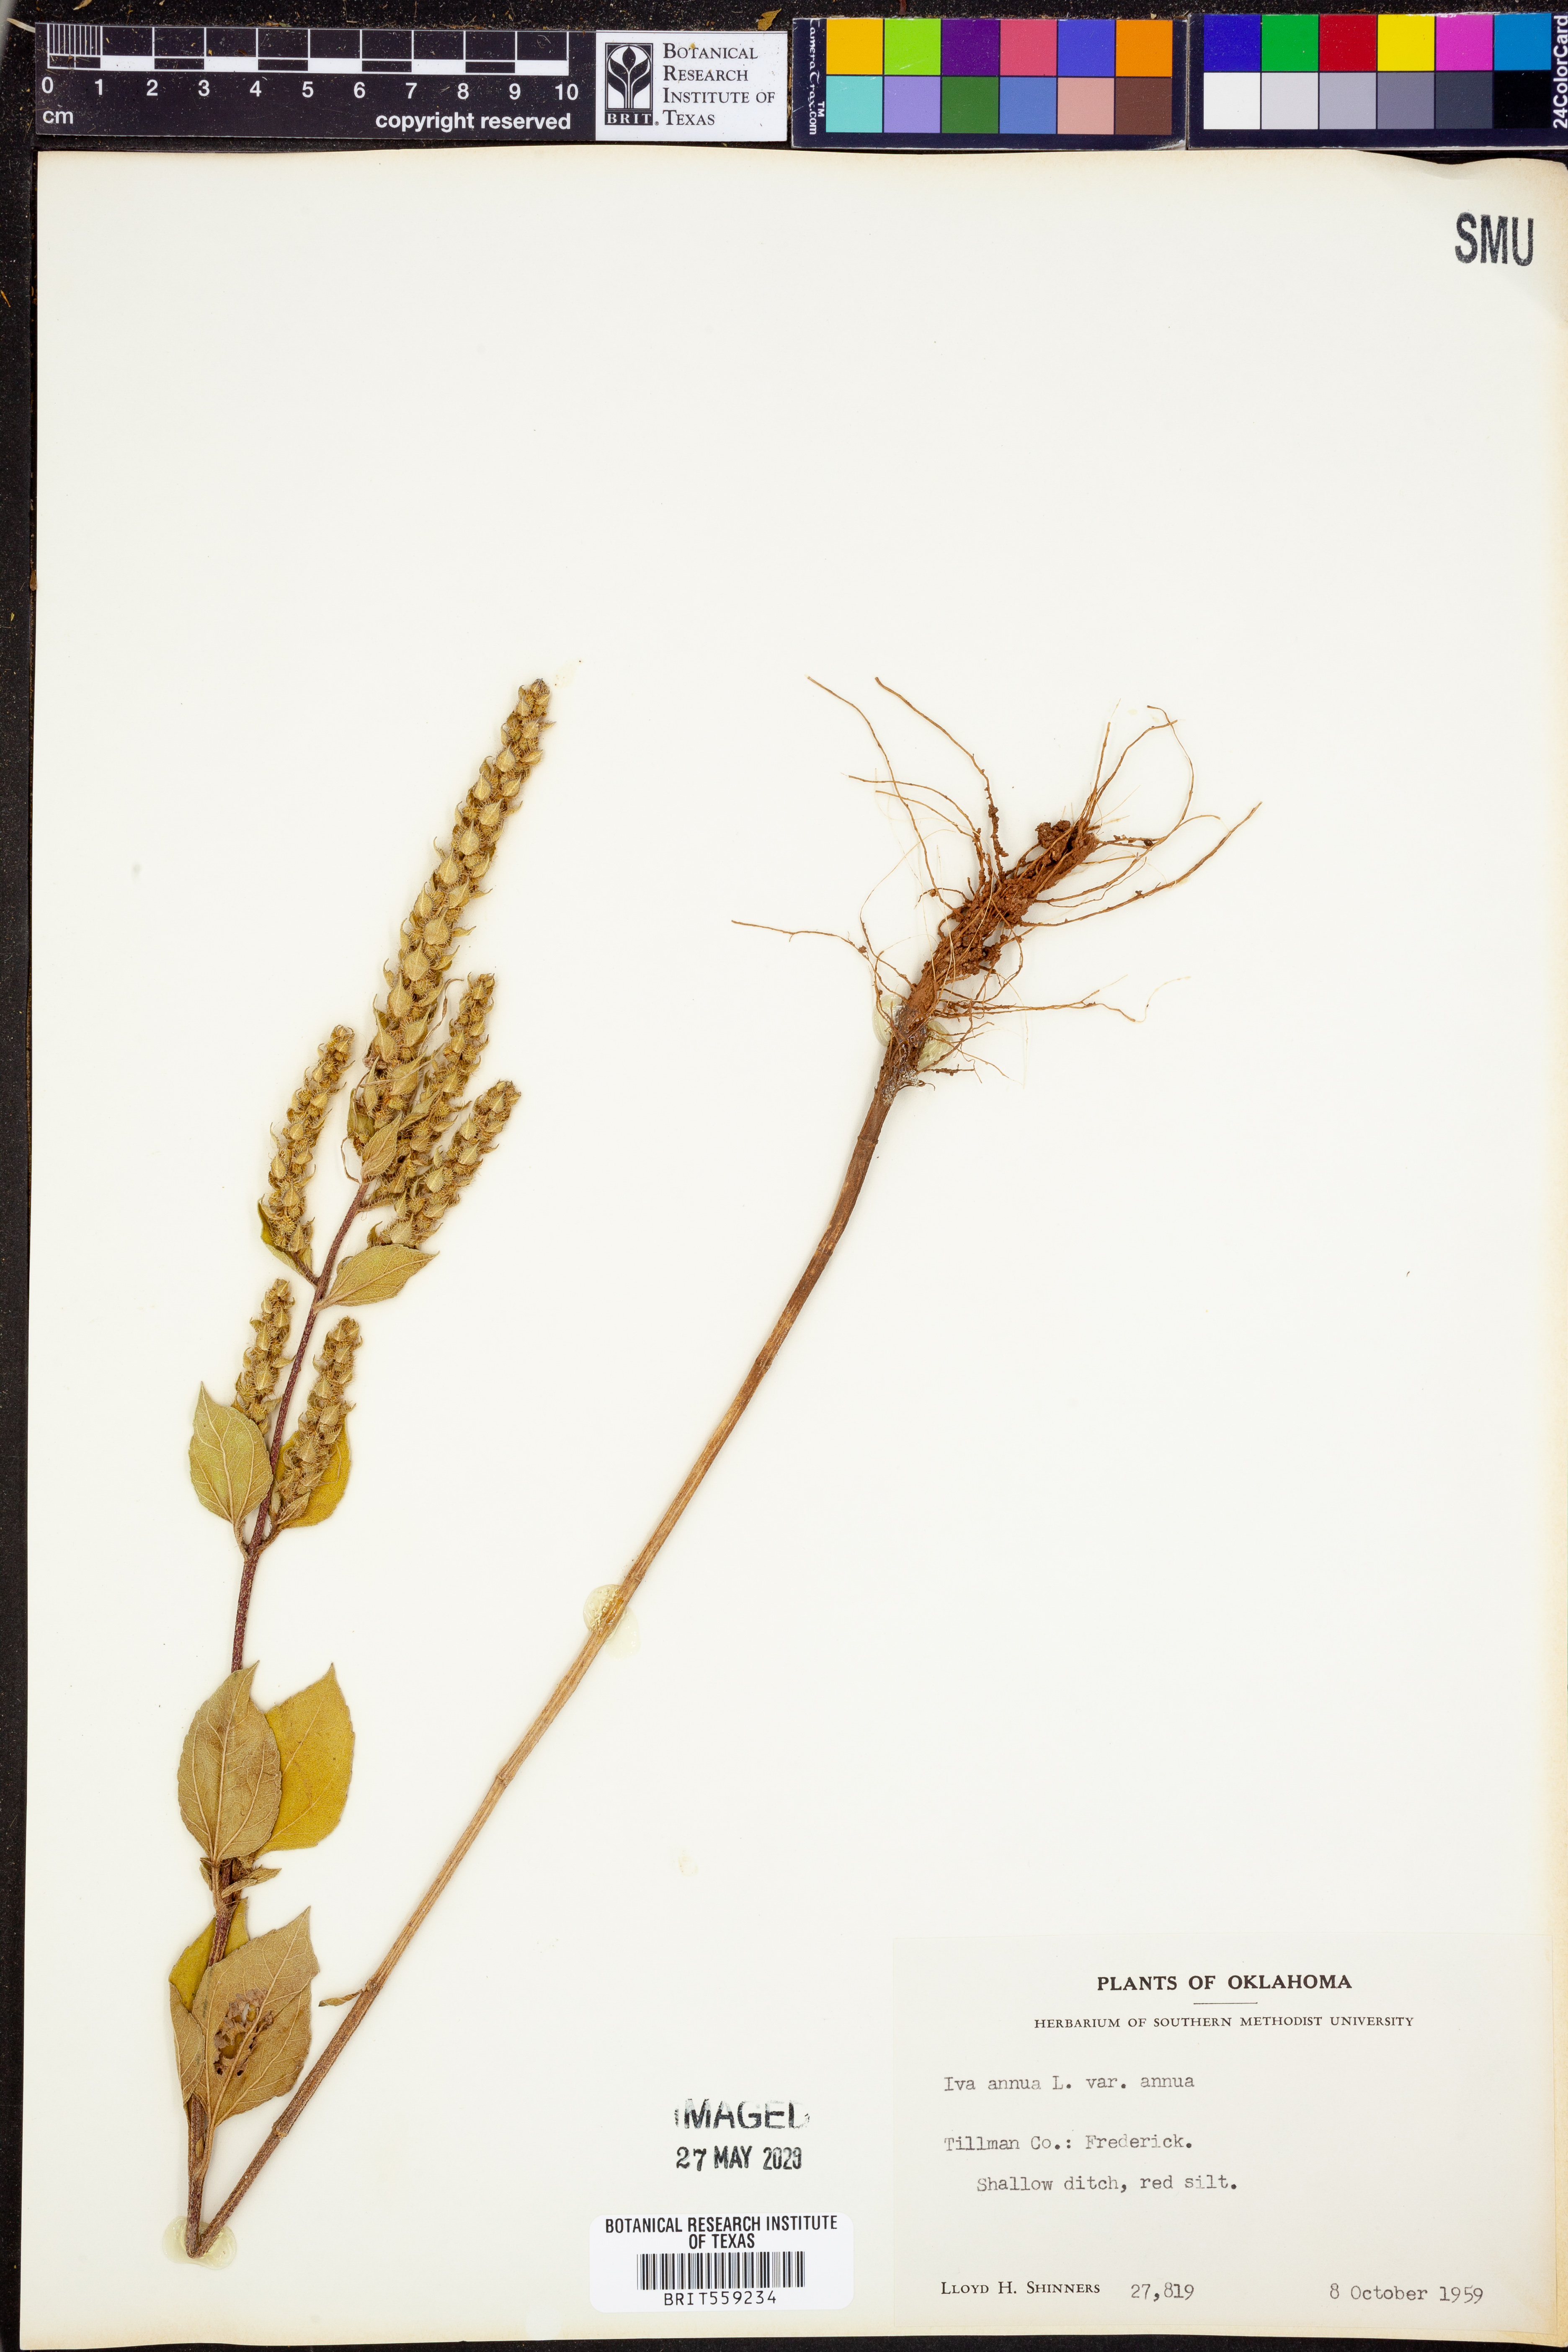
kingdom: Plantae
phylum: Tracheophyta
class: Magnoliopsida
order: Asterales
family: Asteraceae
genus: Iva
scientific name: Iva annua
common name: Marsh-elder
